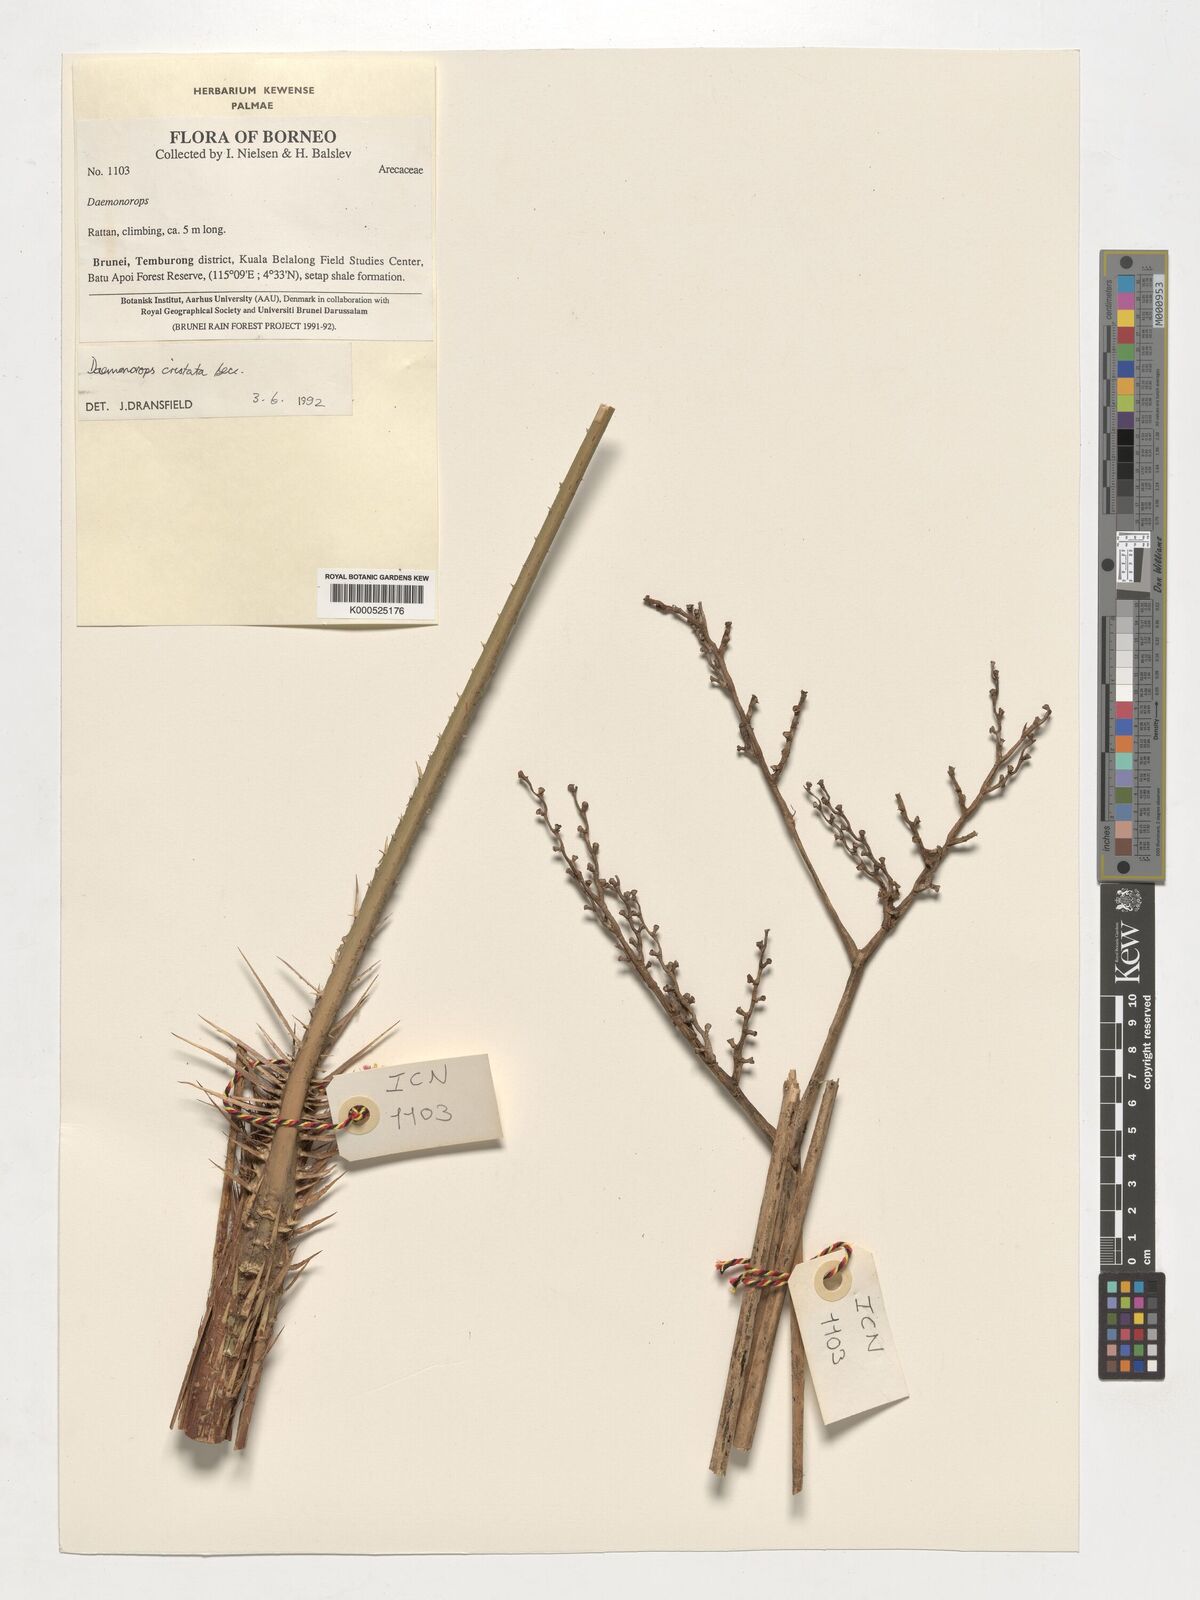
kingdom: Plantae
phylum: Tracheophyta
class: Liliopsida
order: Arecales
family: Arecaceae
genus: Calamus
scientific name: Calamus cristatus
